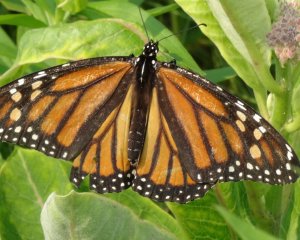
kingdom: Animalia
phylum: Arthropoda
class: Insecta
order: Lepidoptera
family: Nymphalidae
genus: Danaus
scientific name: Danaus plexippus
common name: Monarch
